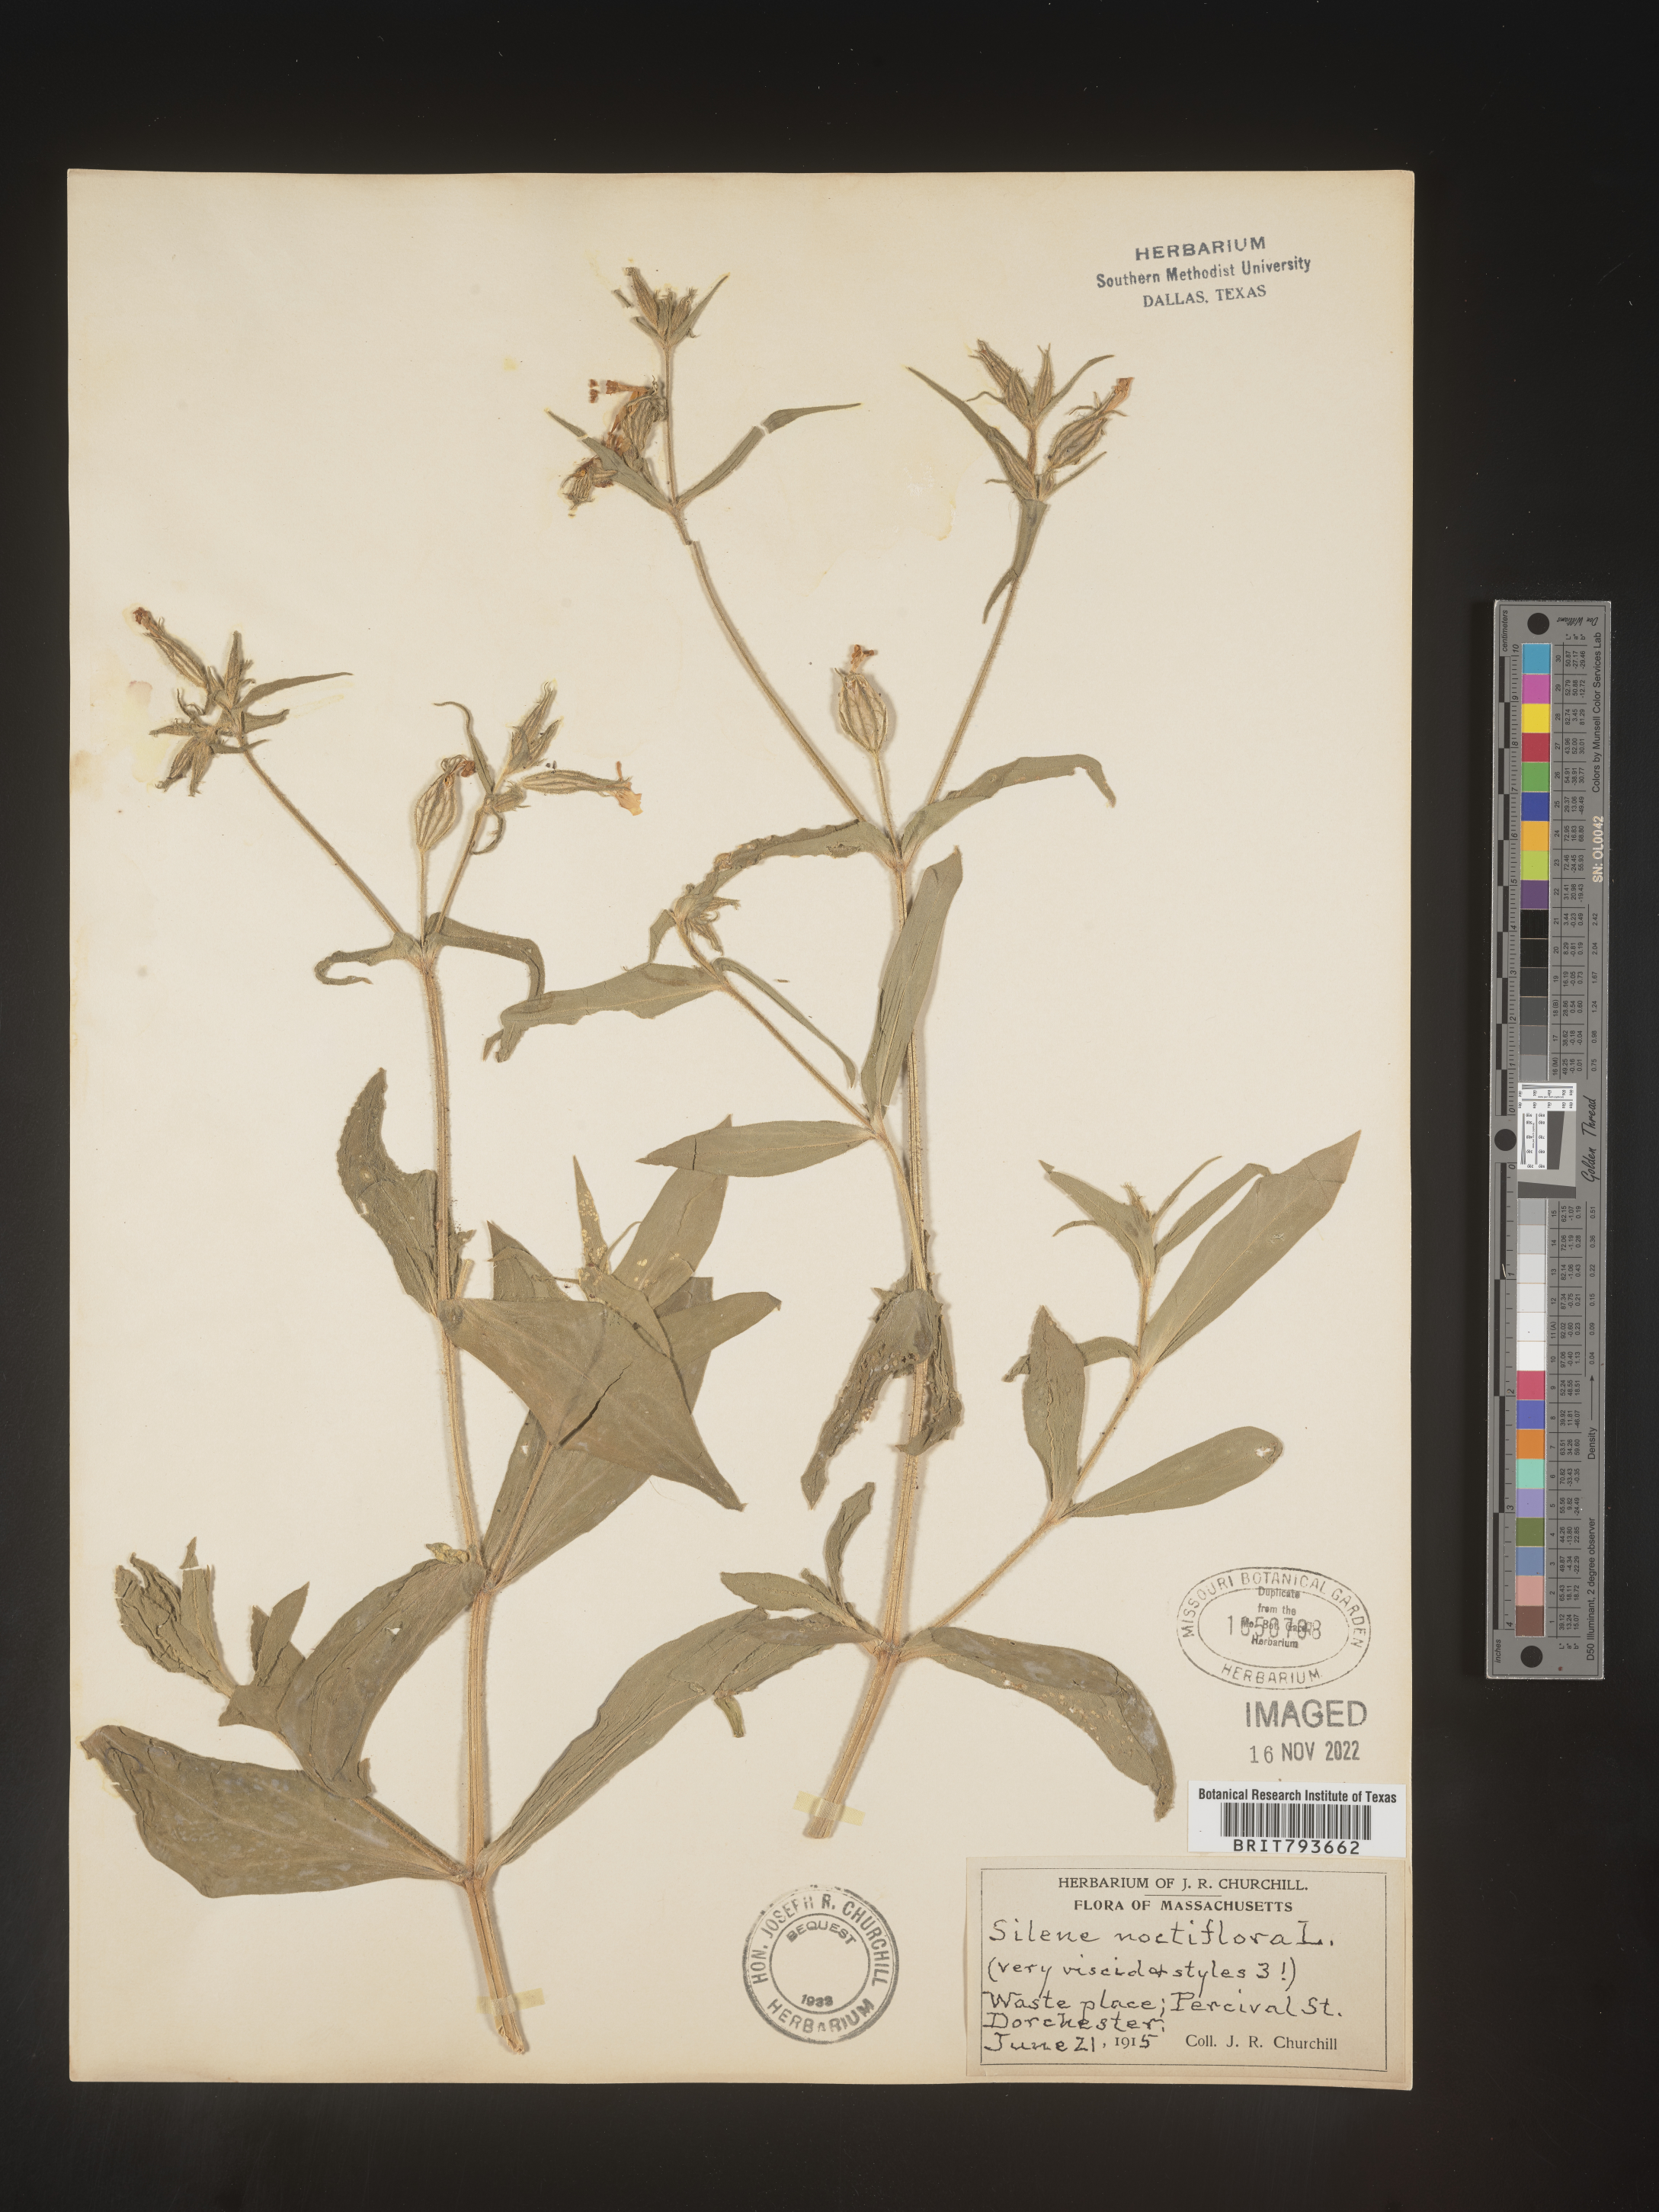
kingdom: Plantae
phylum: Tracheophyta
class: Magnoliopsida
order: Caryophyllales
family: Caryophyllaceae
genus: Silene
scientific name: Silene noctiflora
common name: Night-flowering catchfly
